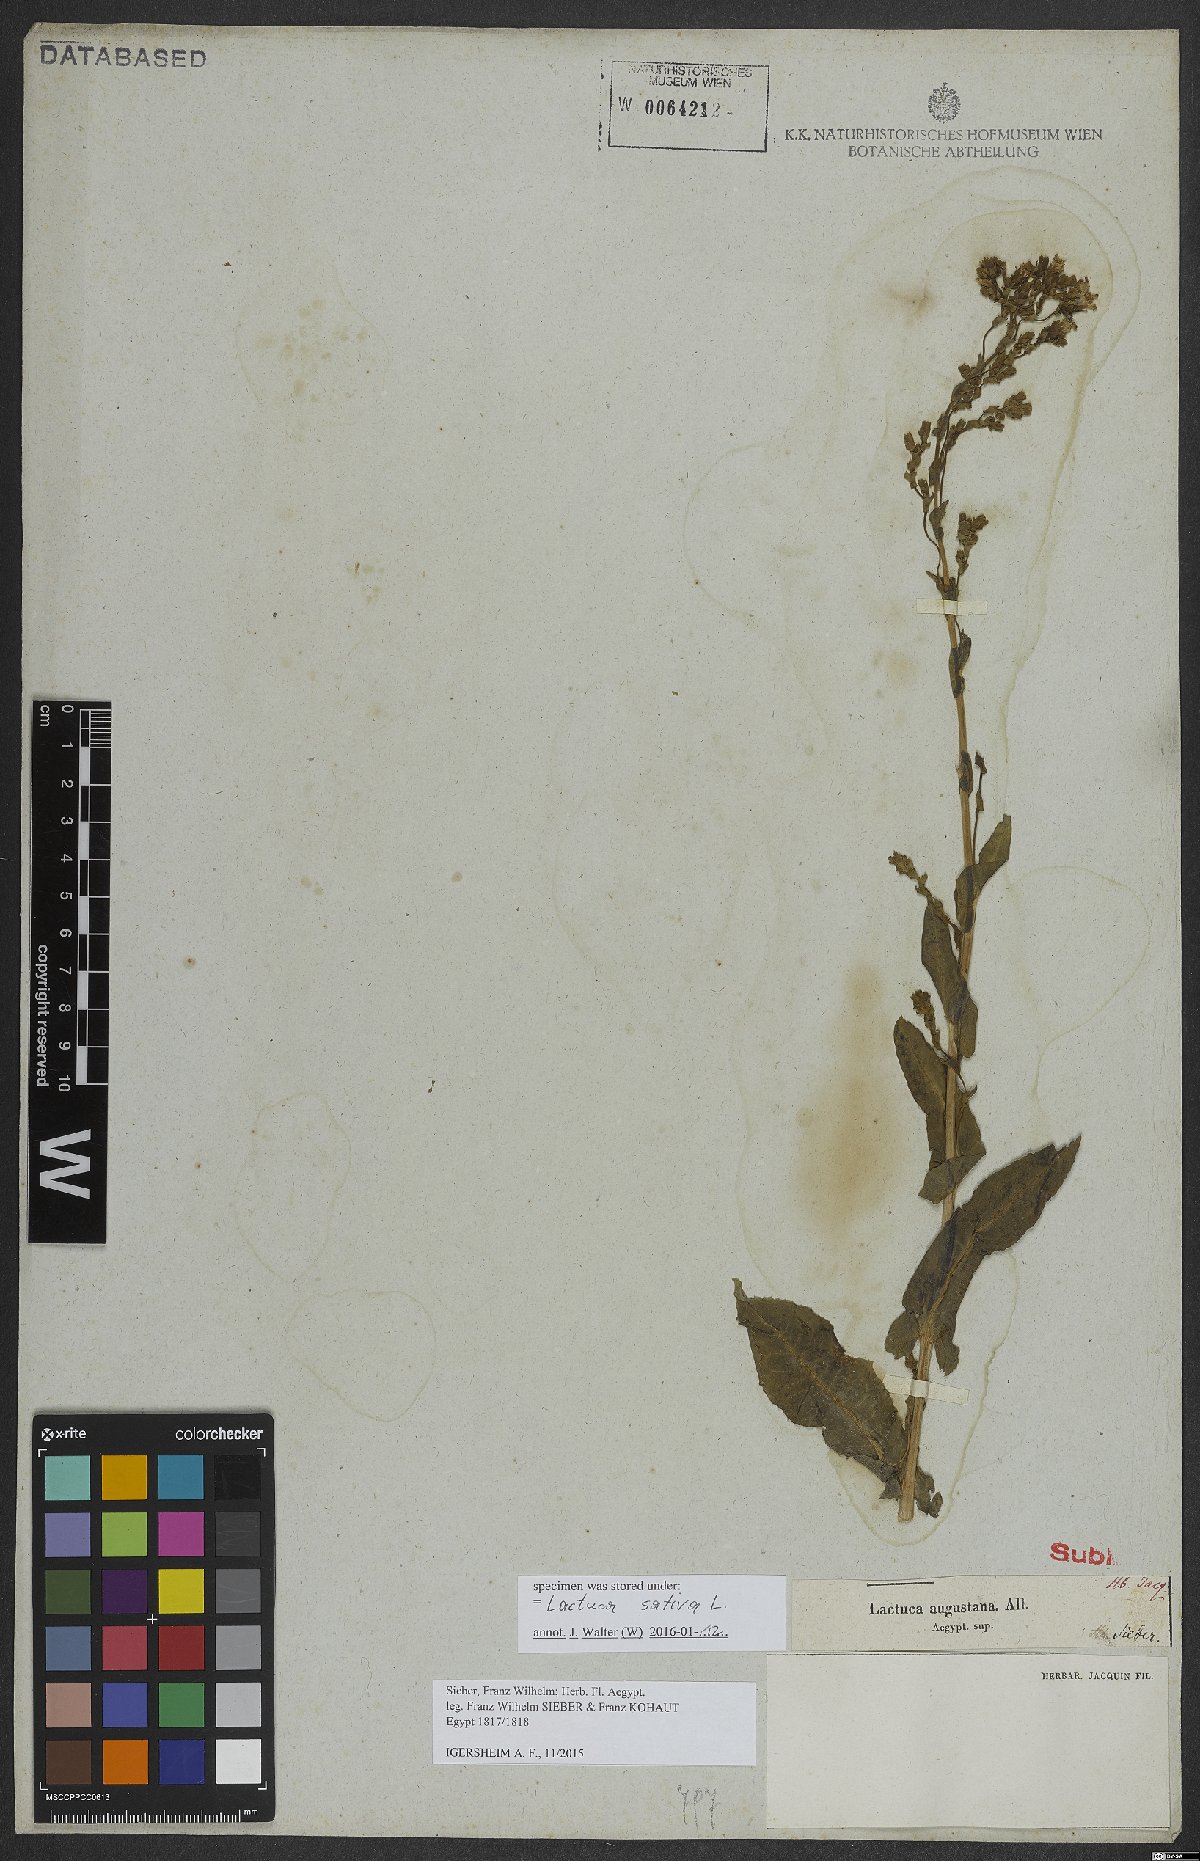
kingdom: Plantae
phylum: Tracheophyta
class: Magnoliopsida
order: Asterales
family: Asteraceae
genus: Lactuca
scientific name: Lactuca sativa
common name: Garden lettuce
